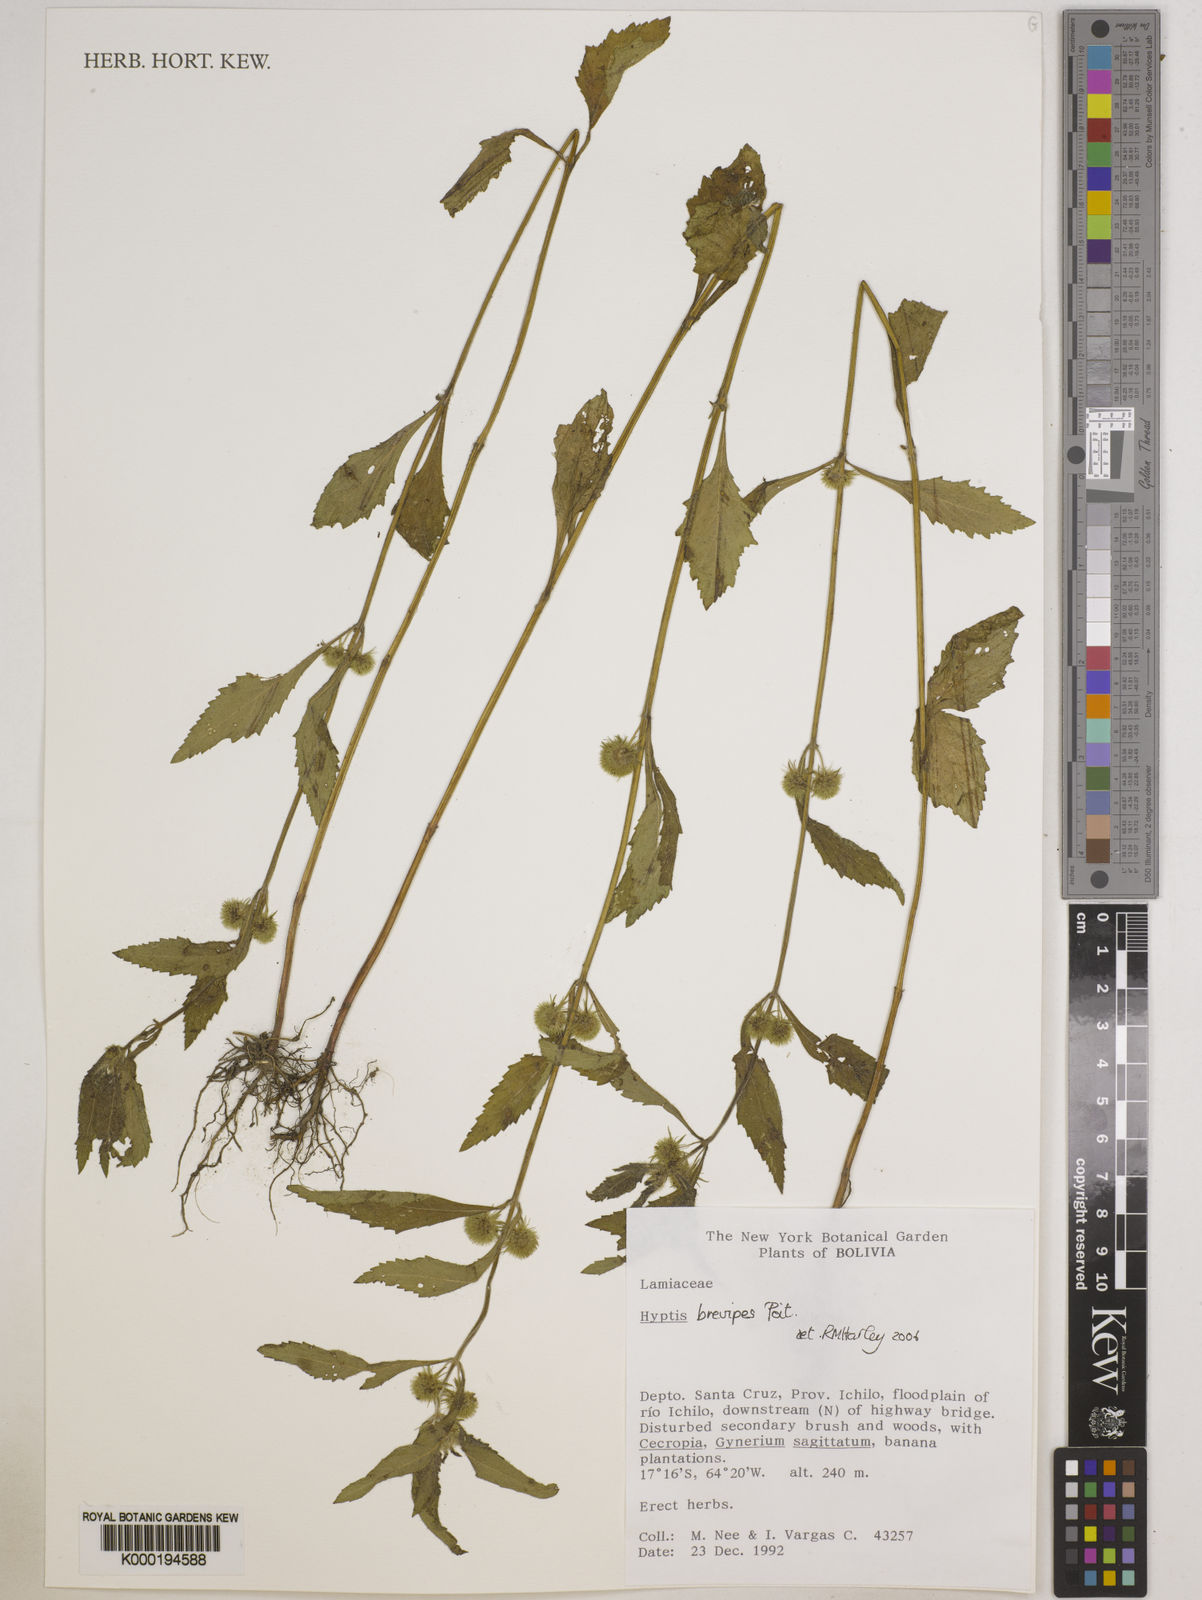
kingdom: Plantae
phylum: Tracheophyta
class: Magnoliopsida
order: Lamiales
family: Lamiaceae
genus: Hyptis
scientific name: Hyptis brevipes
